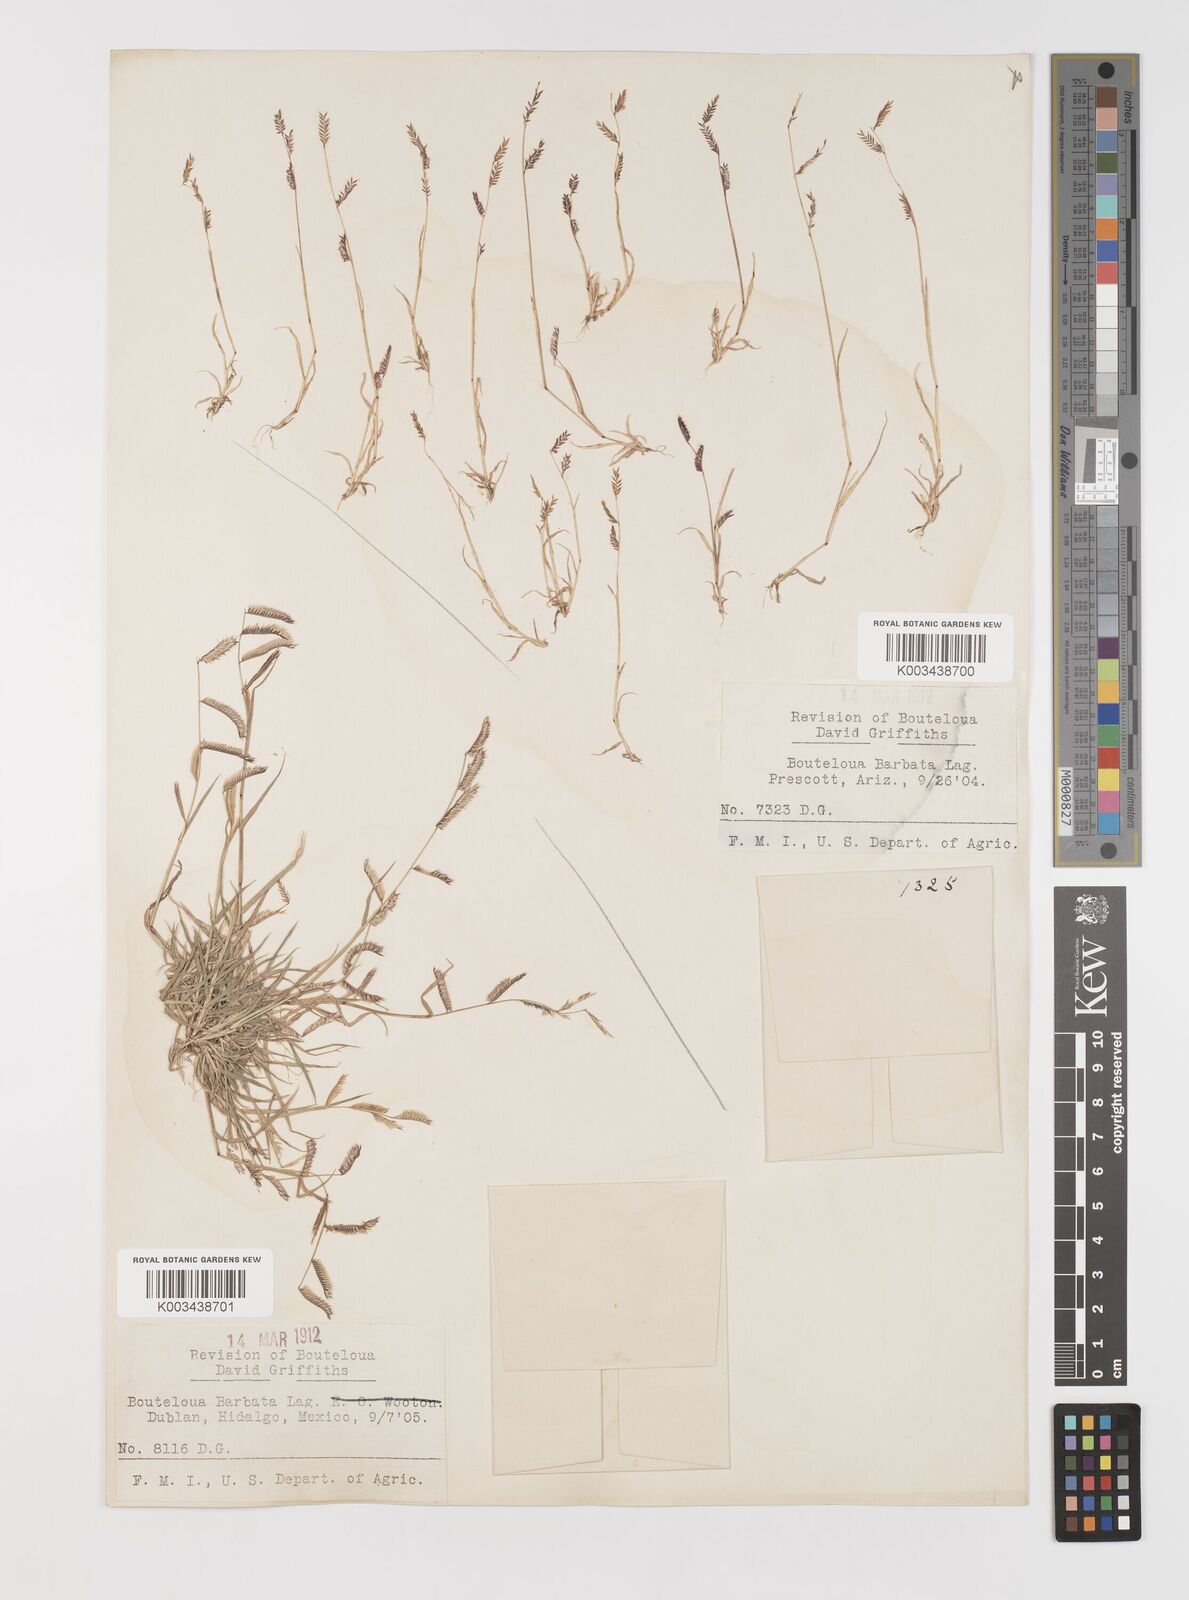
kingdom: Plantae
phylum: Tracheophyta
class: Liliopsida
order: Poales
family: Poaceae
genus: Bouteloua
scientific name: Bouteloua
